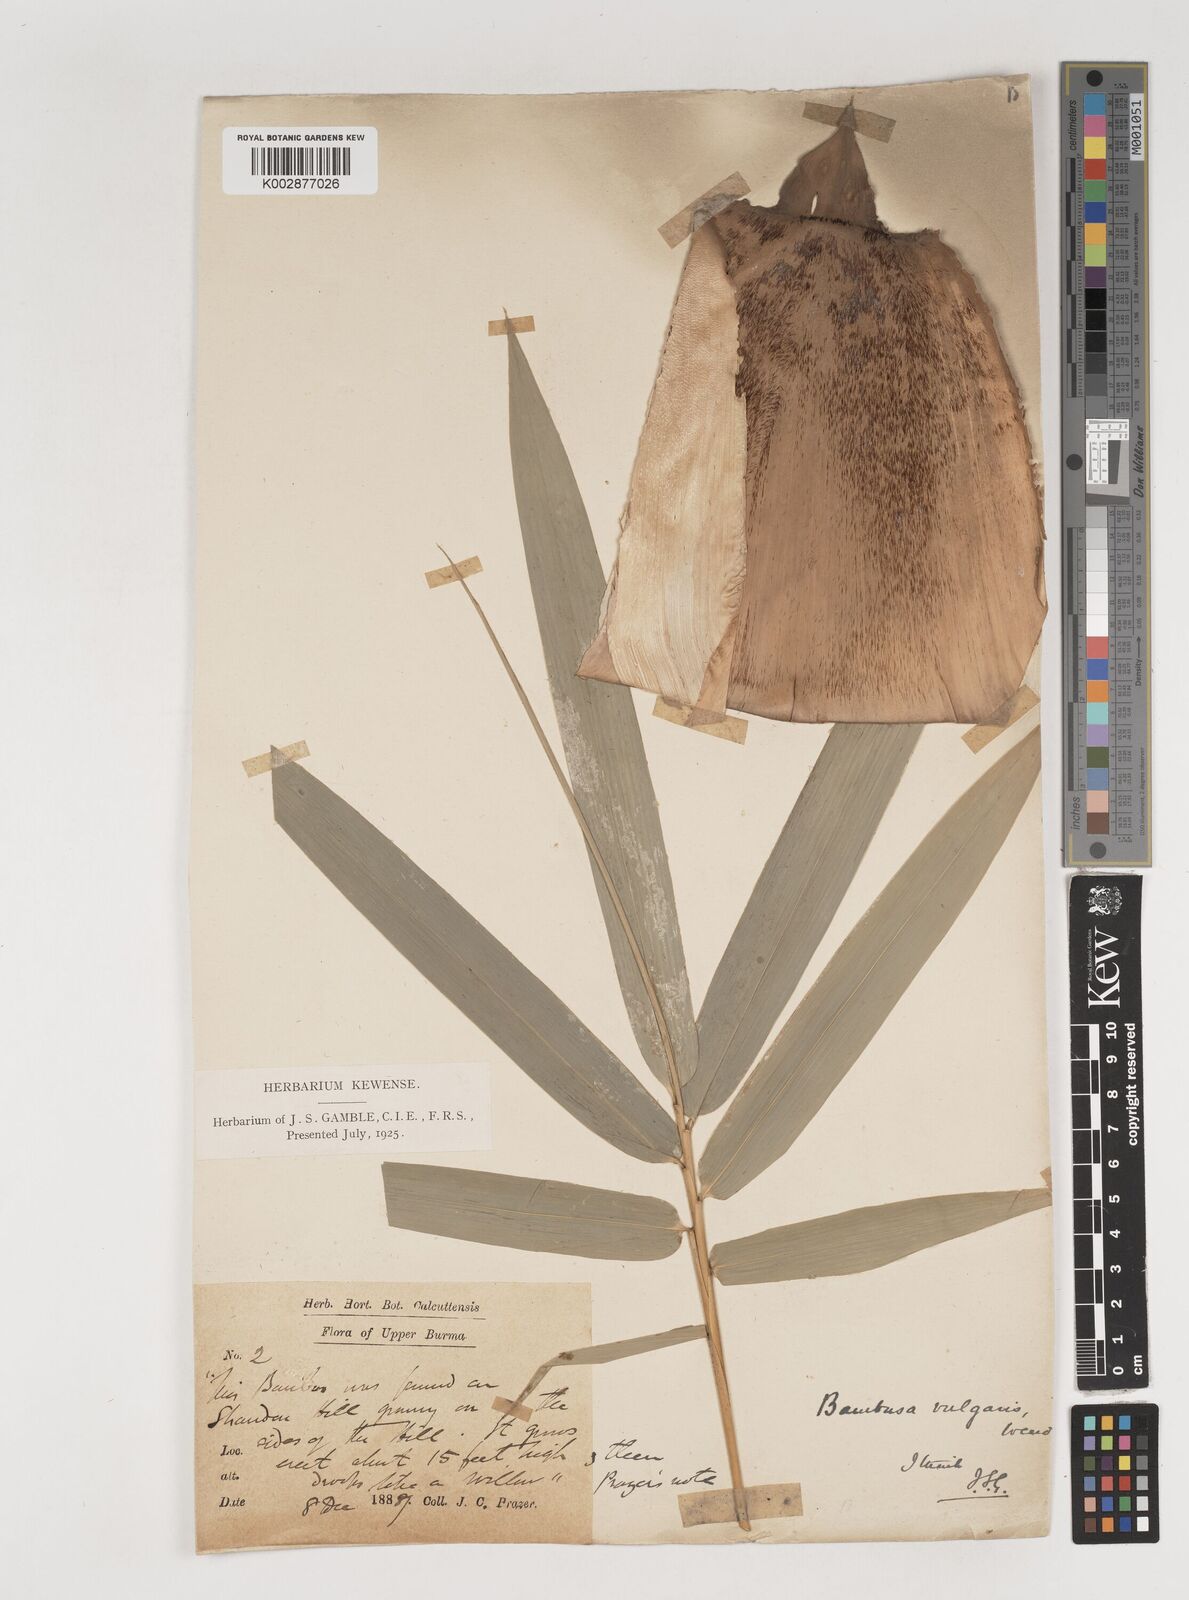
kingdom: Plantae
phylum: Tracheophyta
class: Liliopsida
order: Poales
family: Poaceae
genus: Bambusa
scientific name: Bambusa vulgaris
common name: Common bamboo
